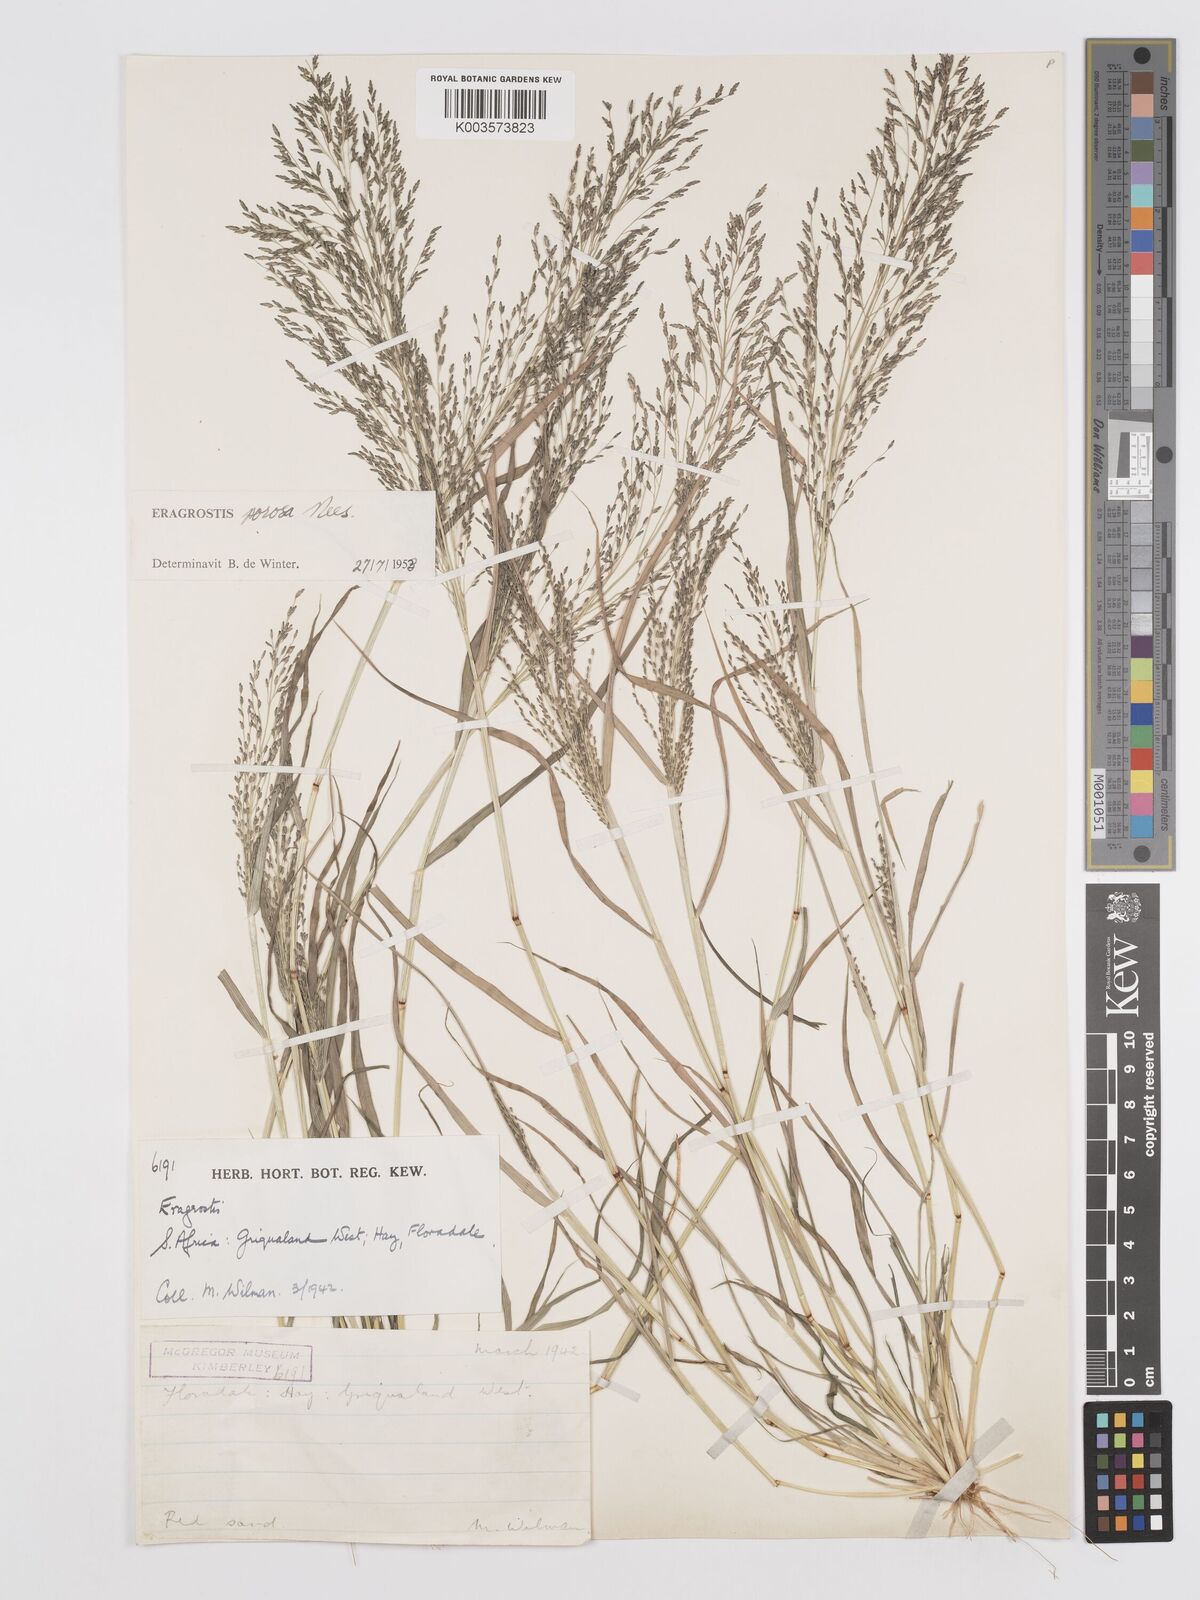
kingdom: Plantae
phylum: Tracheophyta
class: Liliopsida
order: Poales
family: Poaceae
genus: Eragrostis
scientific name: Eragrostis porosa
